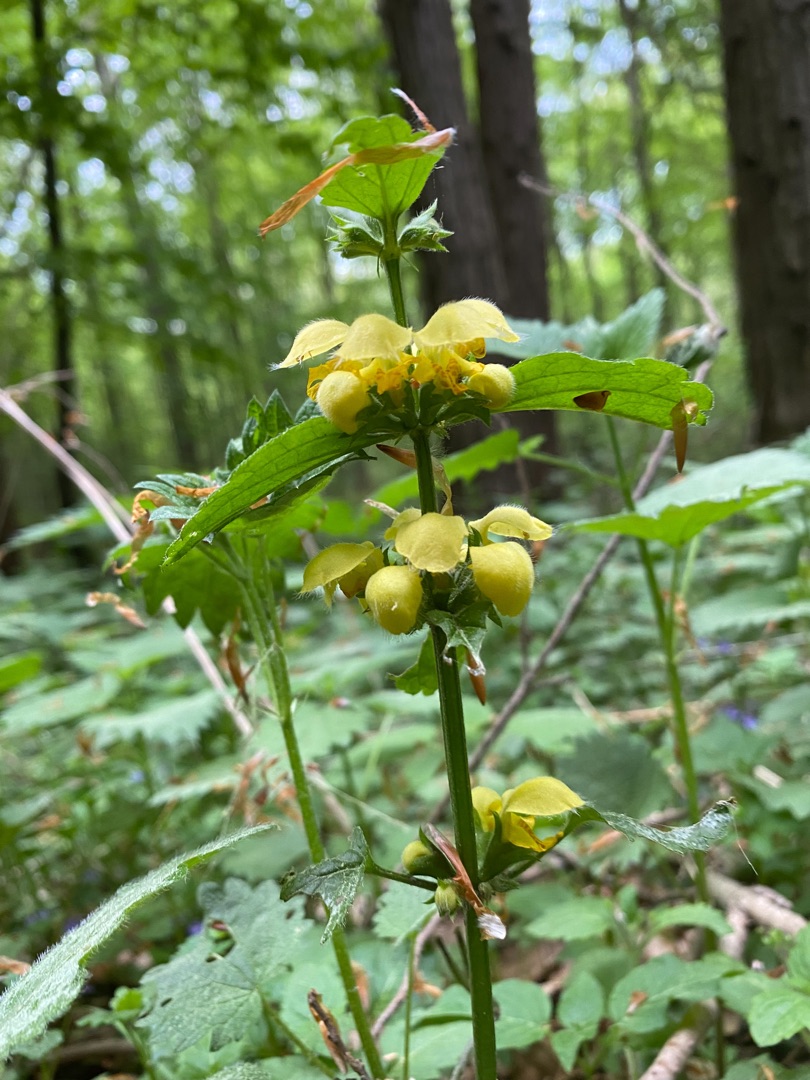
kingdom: Plantae
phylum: Tracheophyta
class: Magnoliopsida
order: Lamiales
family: Lamiaceae
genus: Lamium
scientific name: Lamium galeobdolon
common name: Guldnælde
